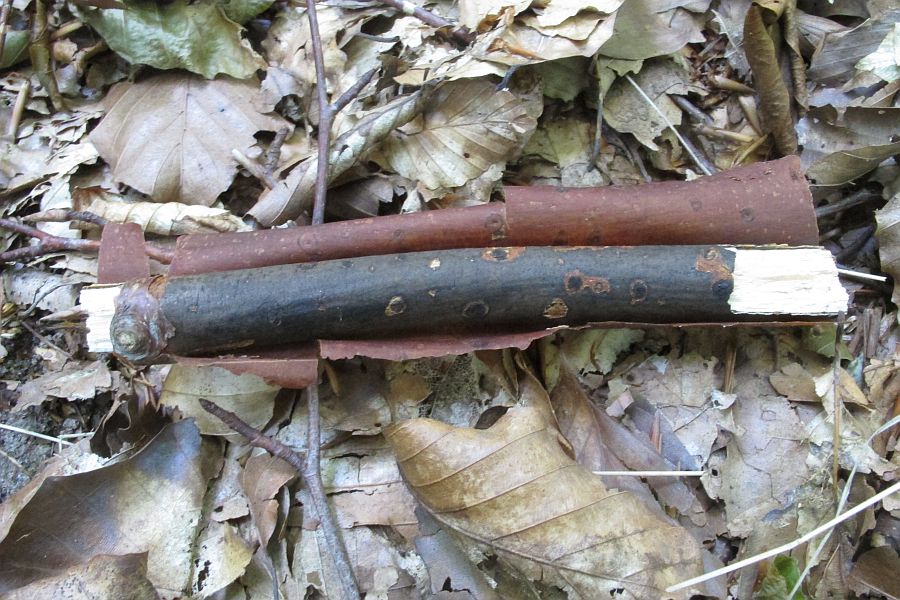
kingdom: Fungi
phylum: Ascomycota
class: Sordariomycetes
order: Xylariales
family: Diatrypaceae
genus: Diatrype
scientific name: Diatrype decorticata
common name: barksprænger-kulskorpe
